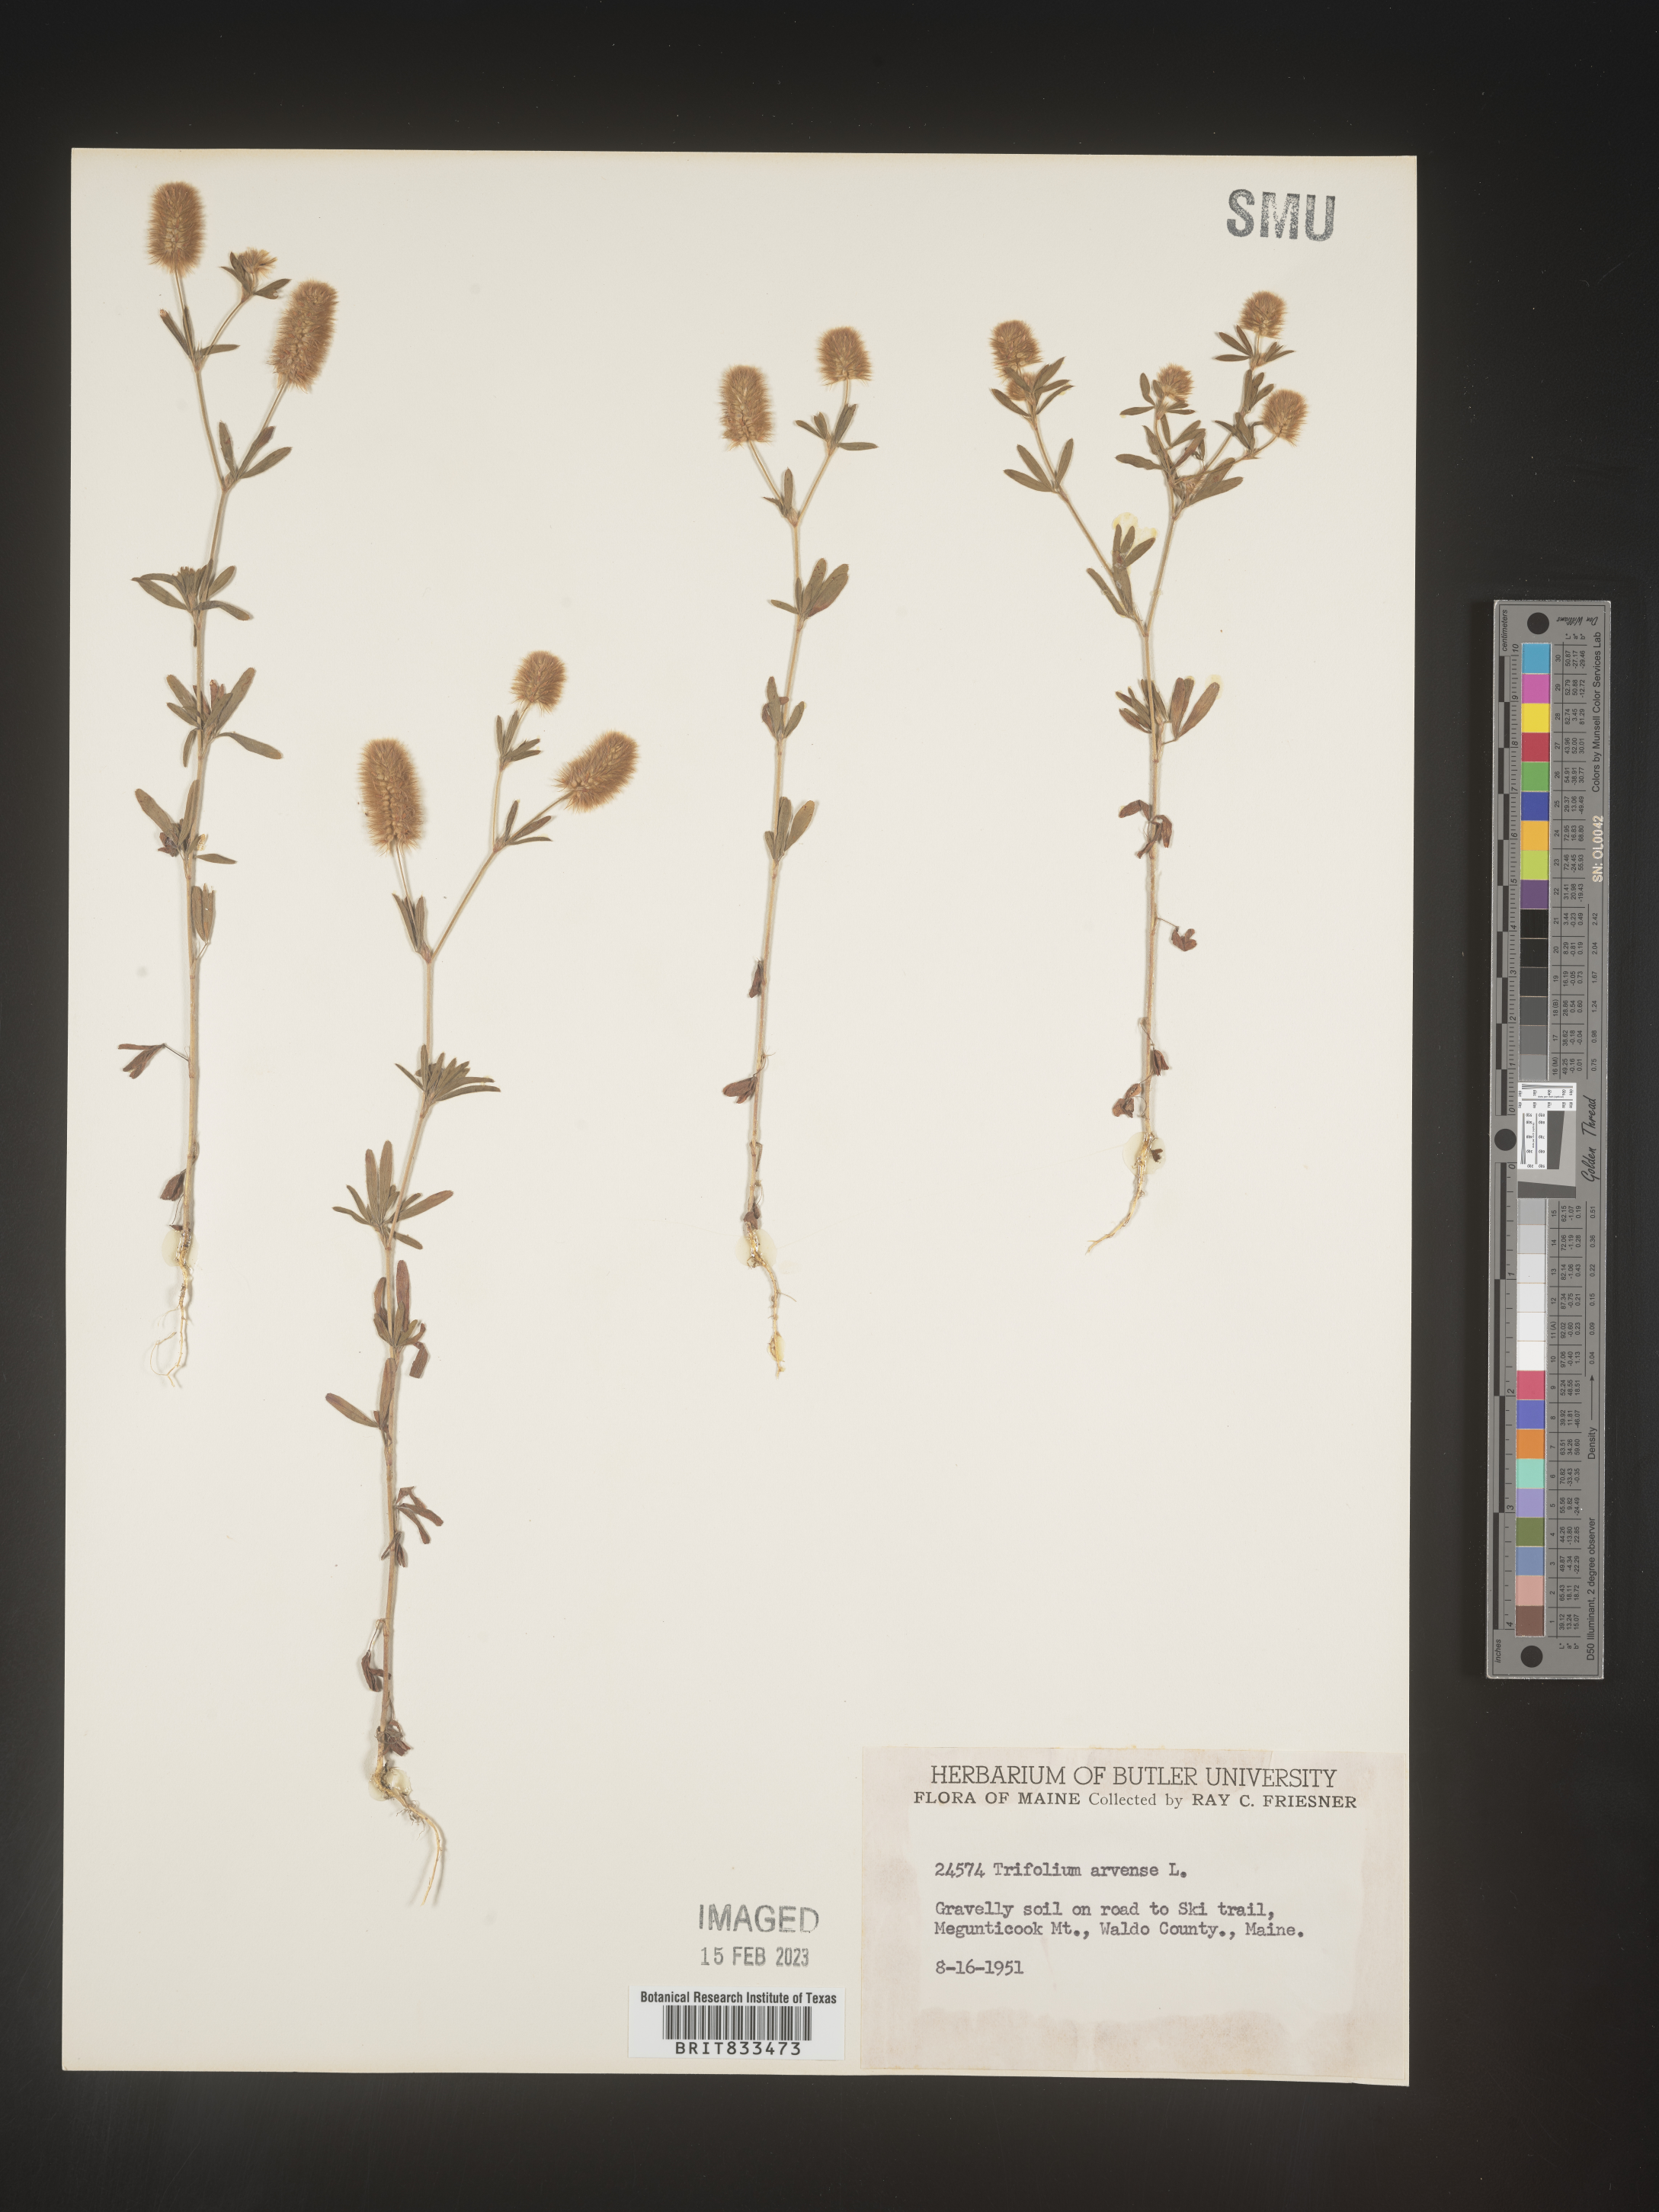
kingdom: Plantae
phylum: Tracheophyta
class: Magnoliopsida
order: Fabales
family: Fabaceae
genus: Trifolium
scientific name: Trifolium arvense
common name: Hare's-foot clover
